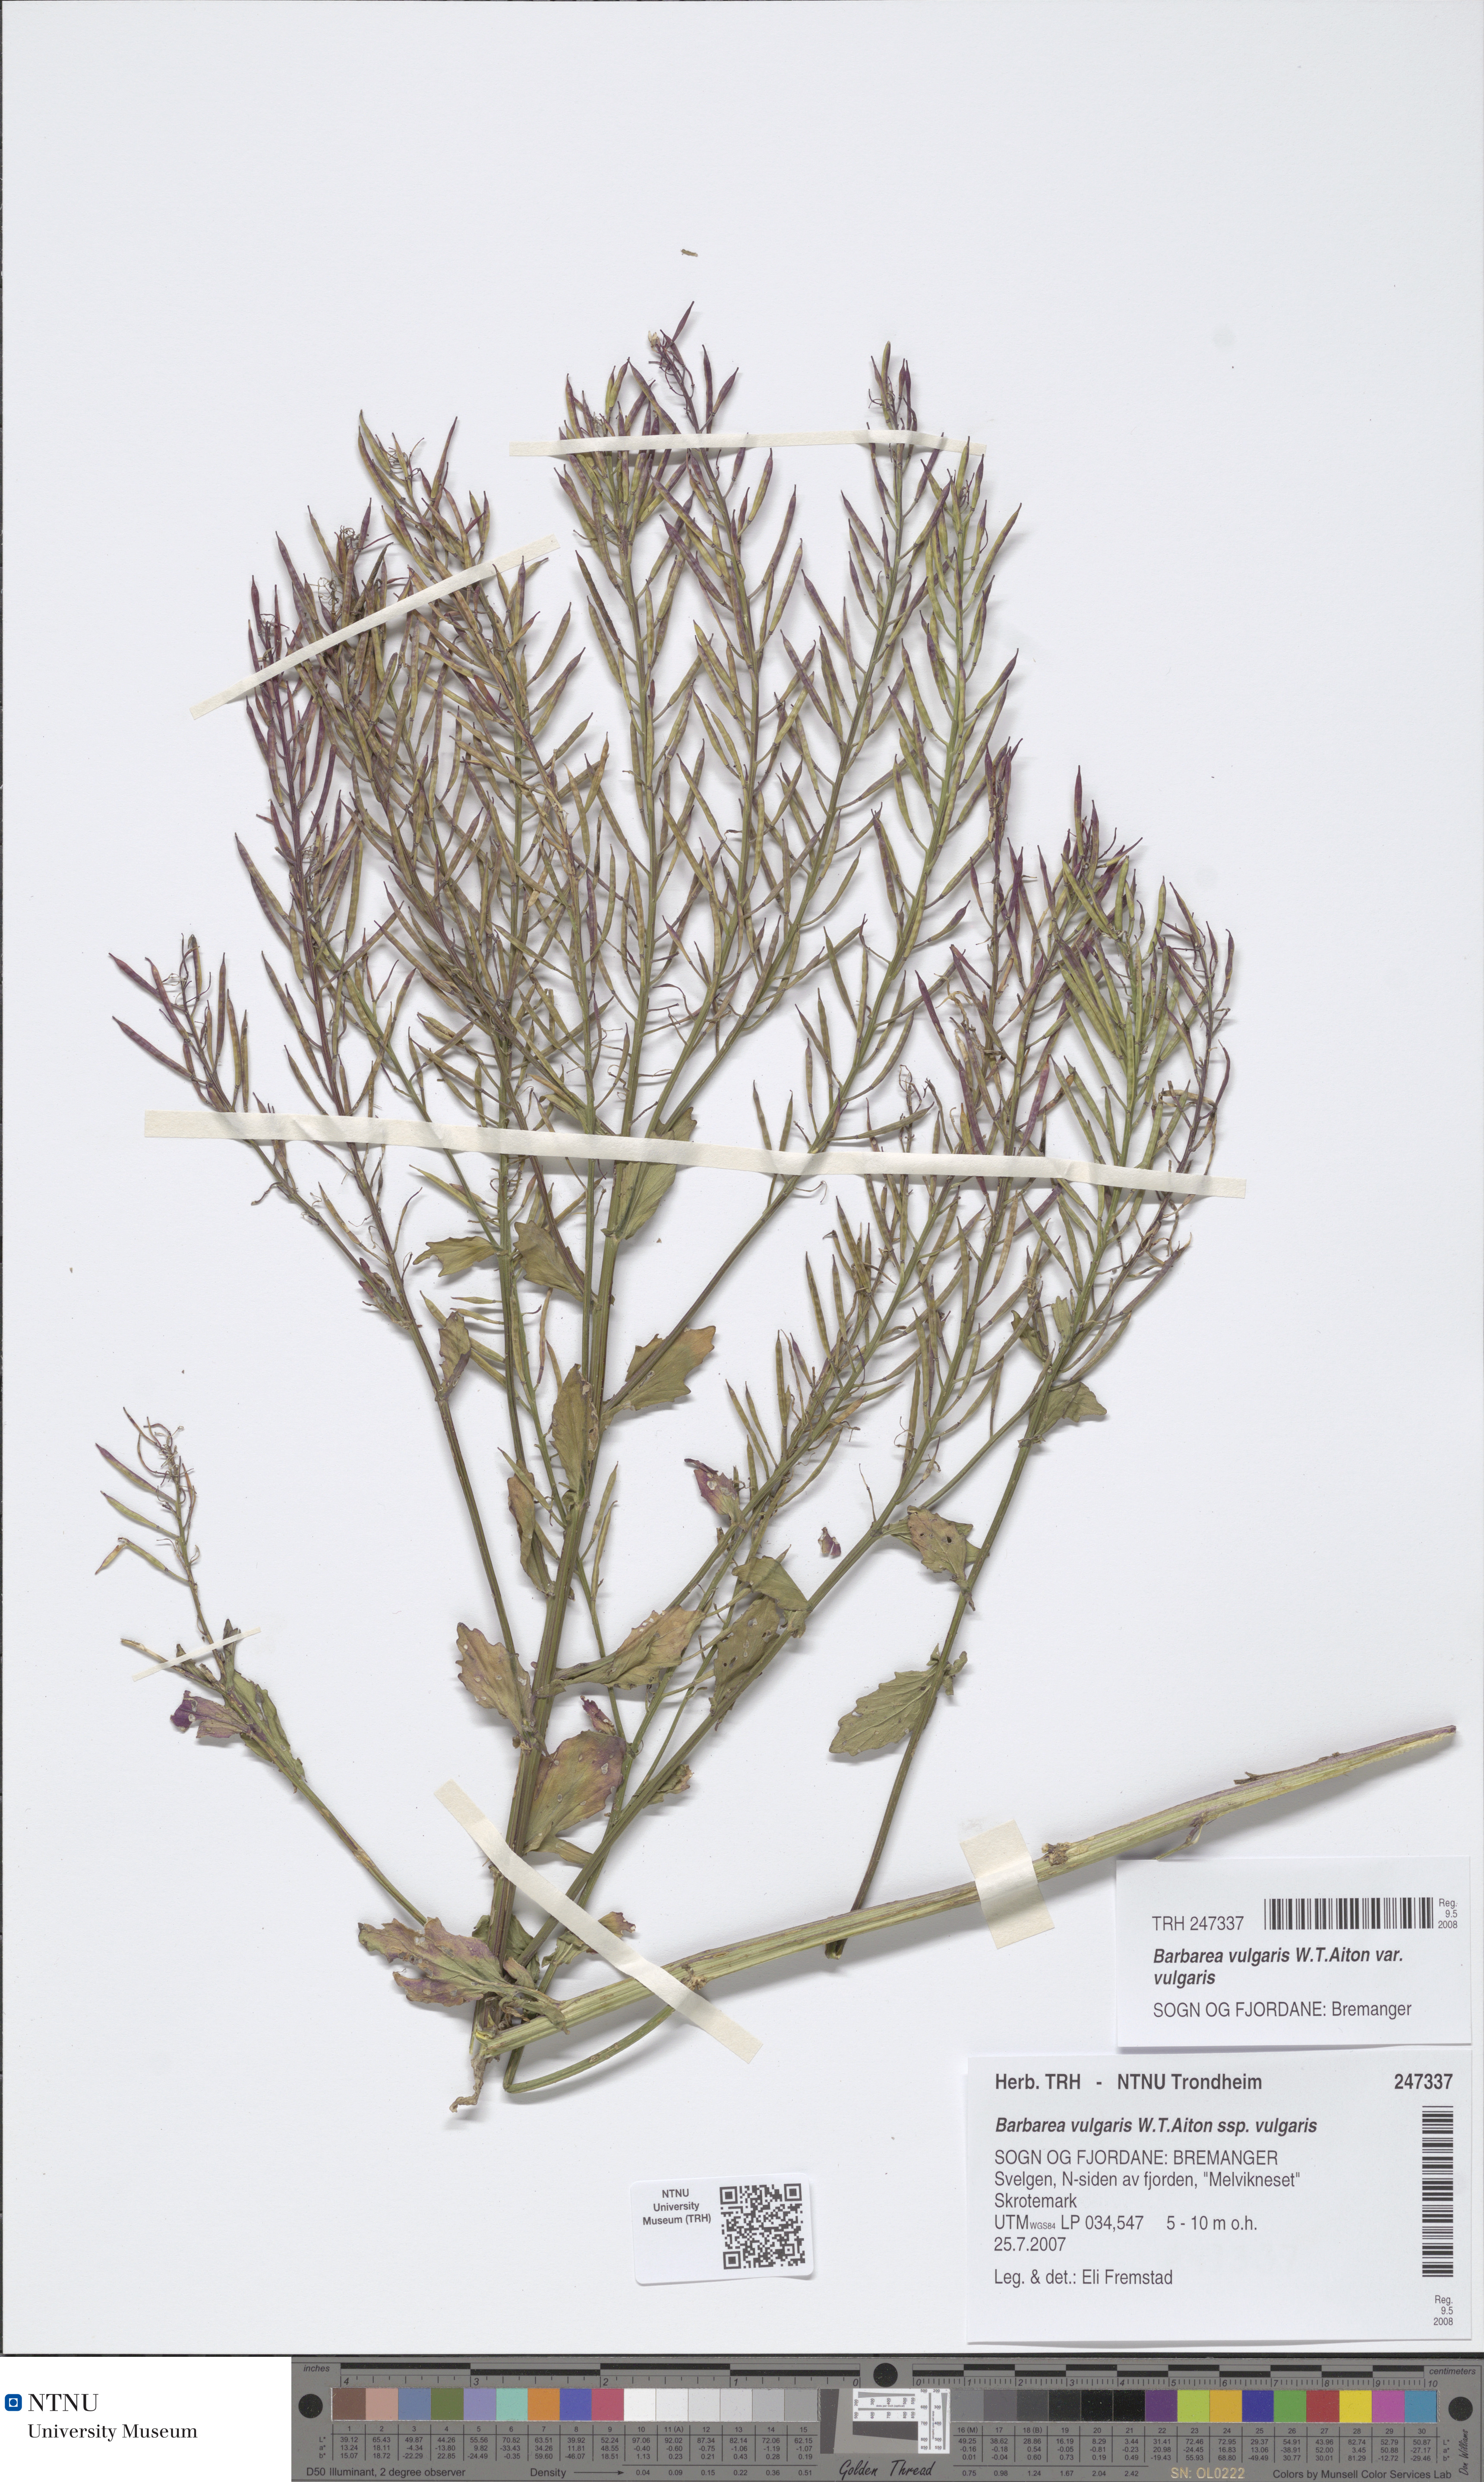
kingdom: Plantae
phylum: Tracheophyta
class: Magnoliopsida
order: Brassicales
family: Brassicaceae
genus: Barbarea
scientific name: Barbarea vulgaris
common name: Cressy-greens
